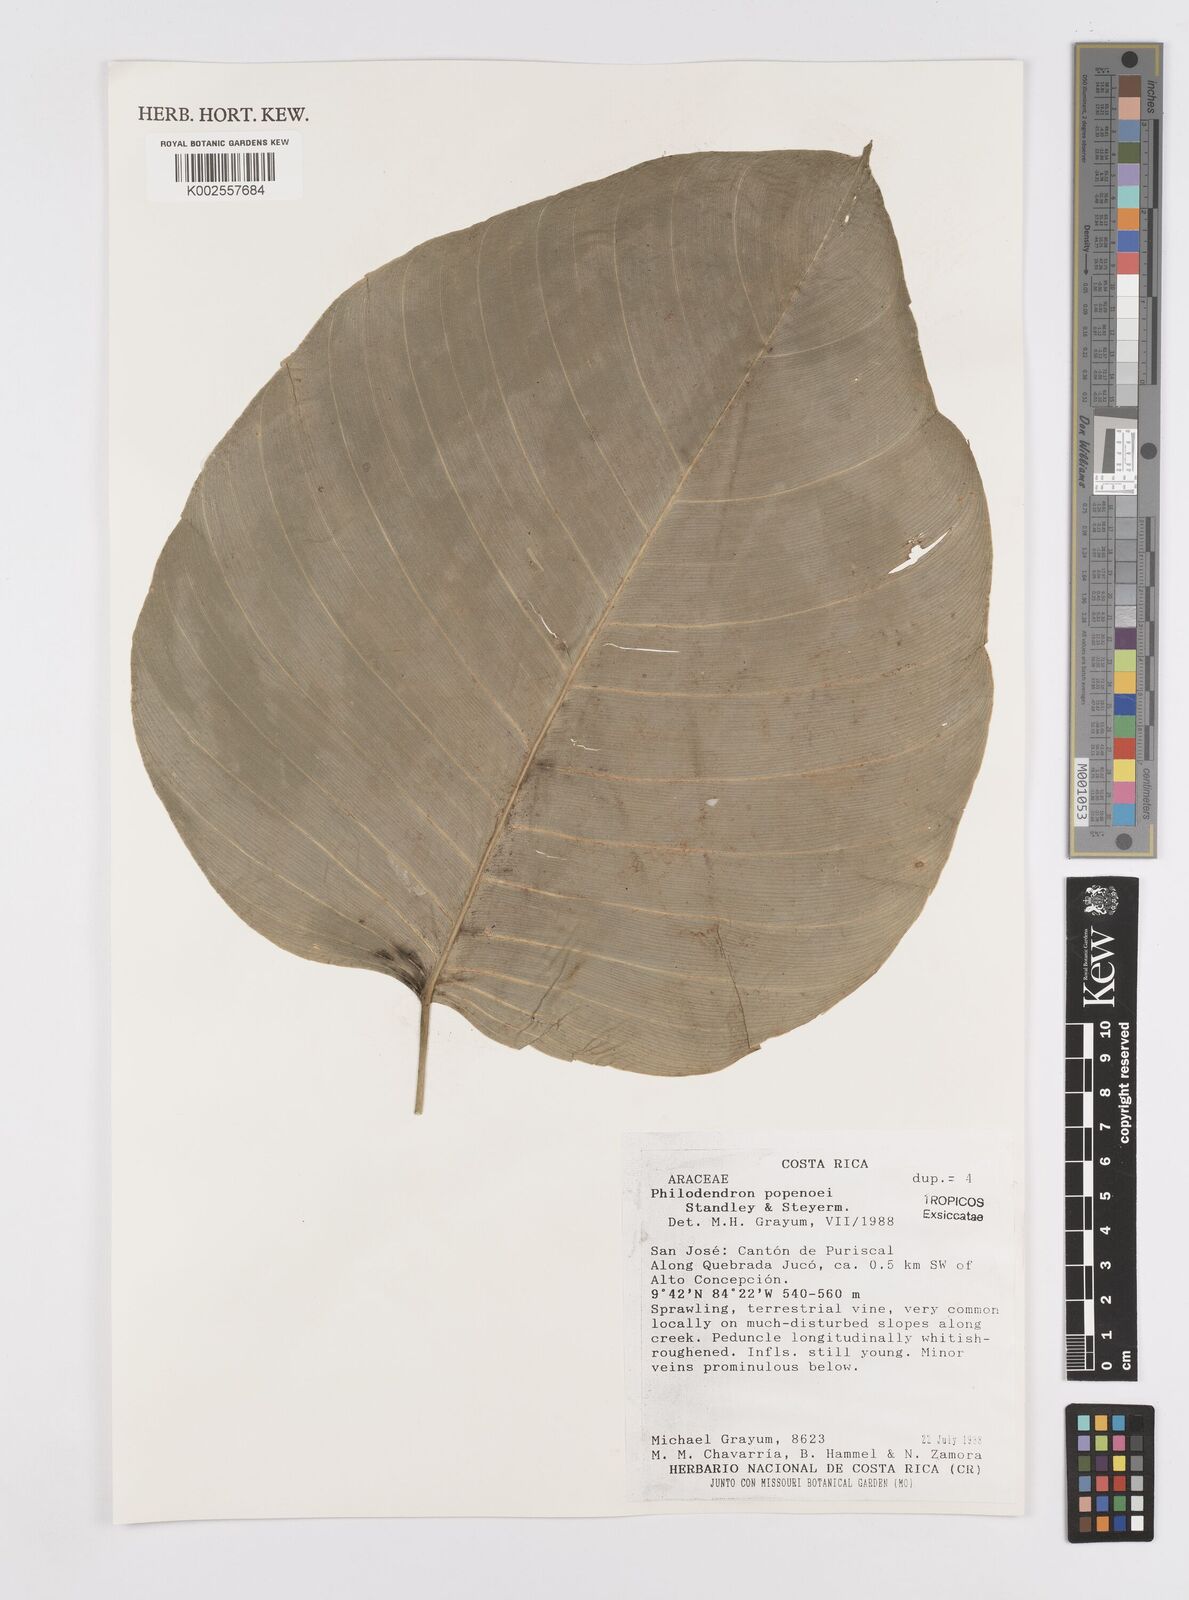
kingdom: Plantae
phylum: Tracheophyta
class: Liliopsida
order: Alismatales
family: Araceae
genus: Philodendron
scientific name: Philodendron popenoei
